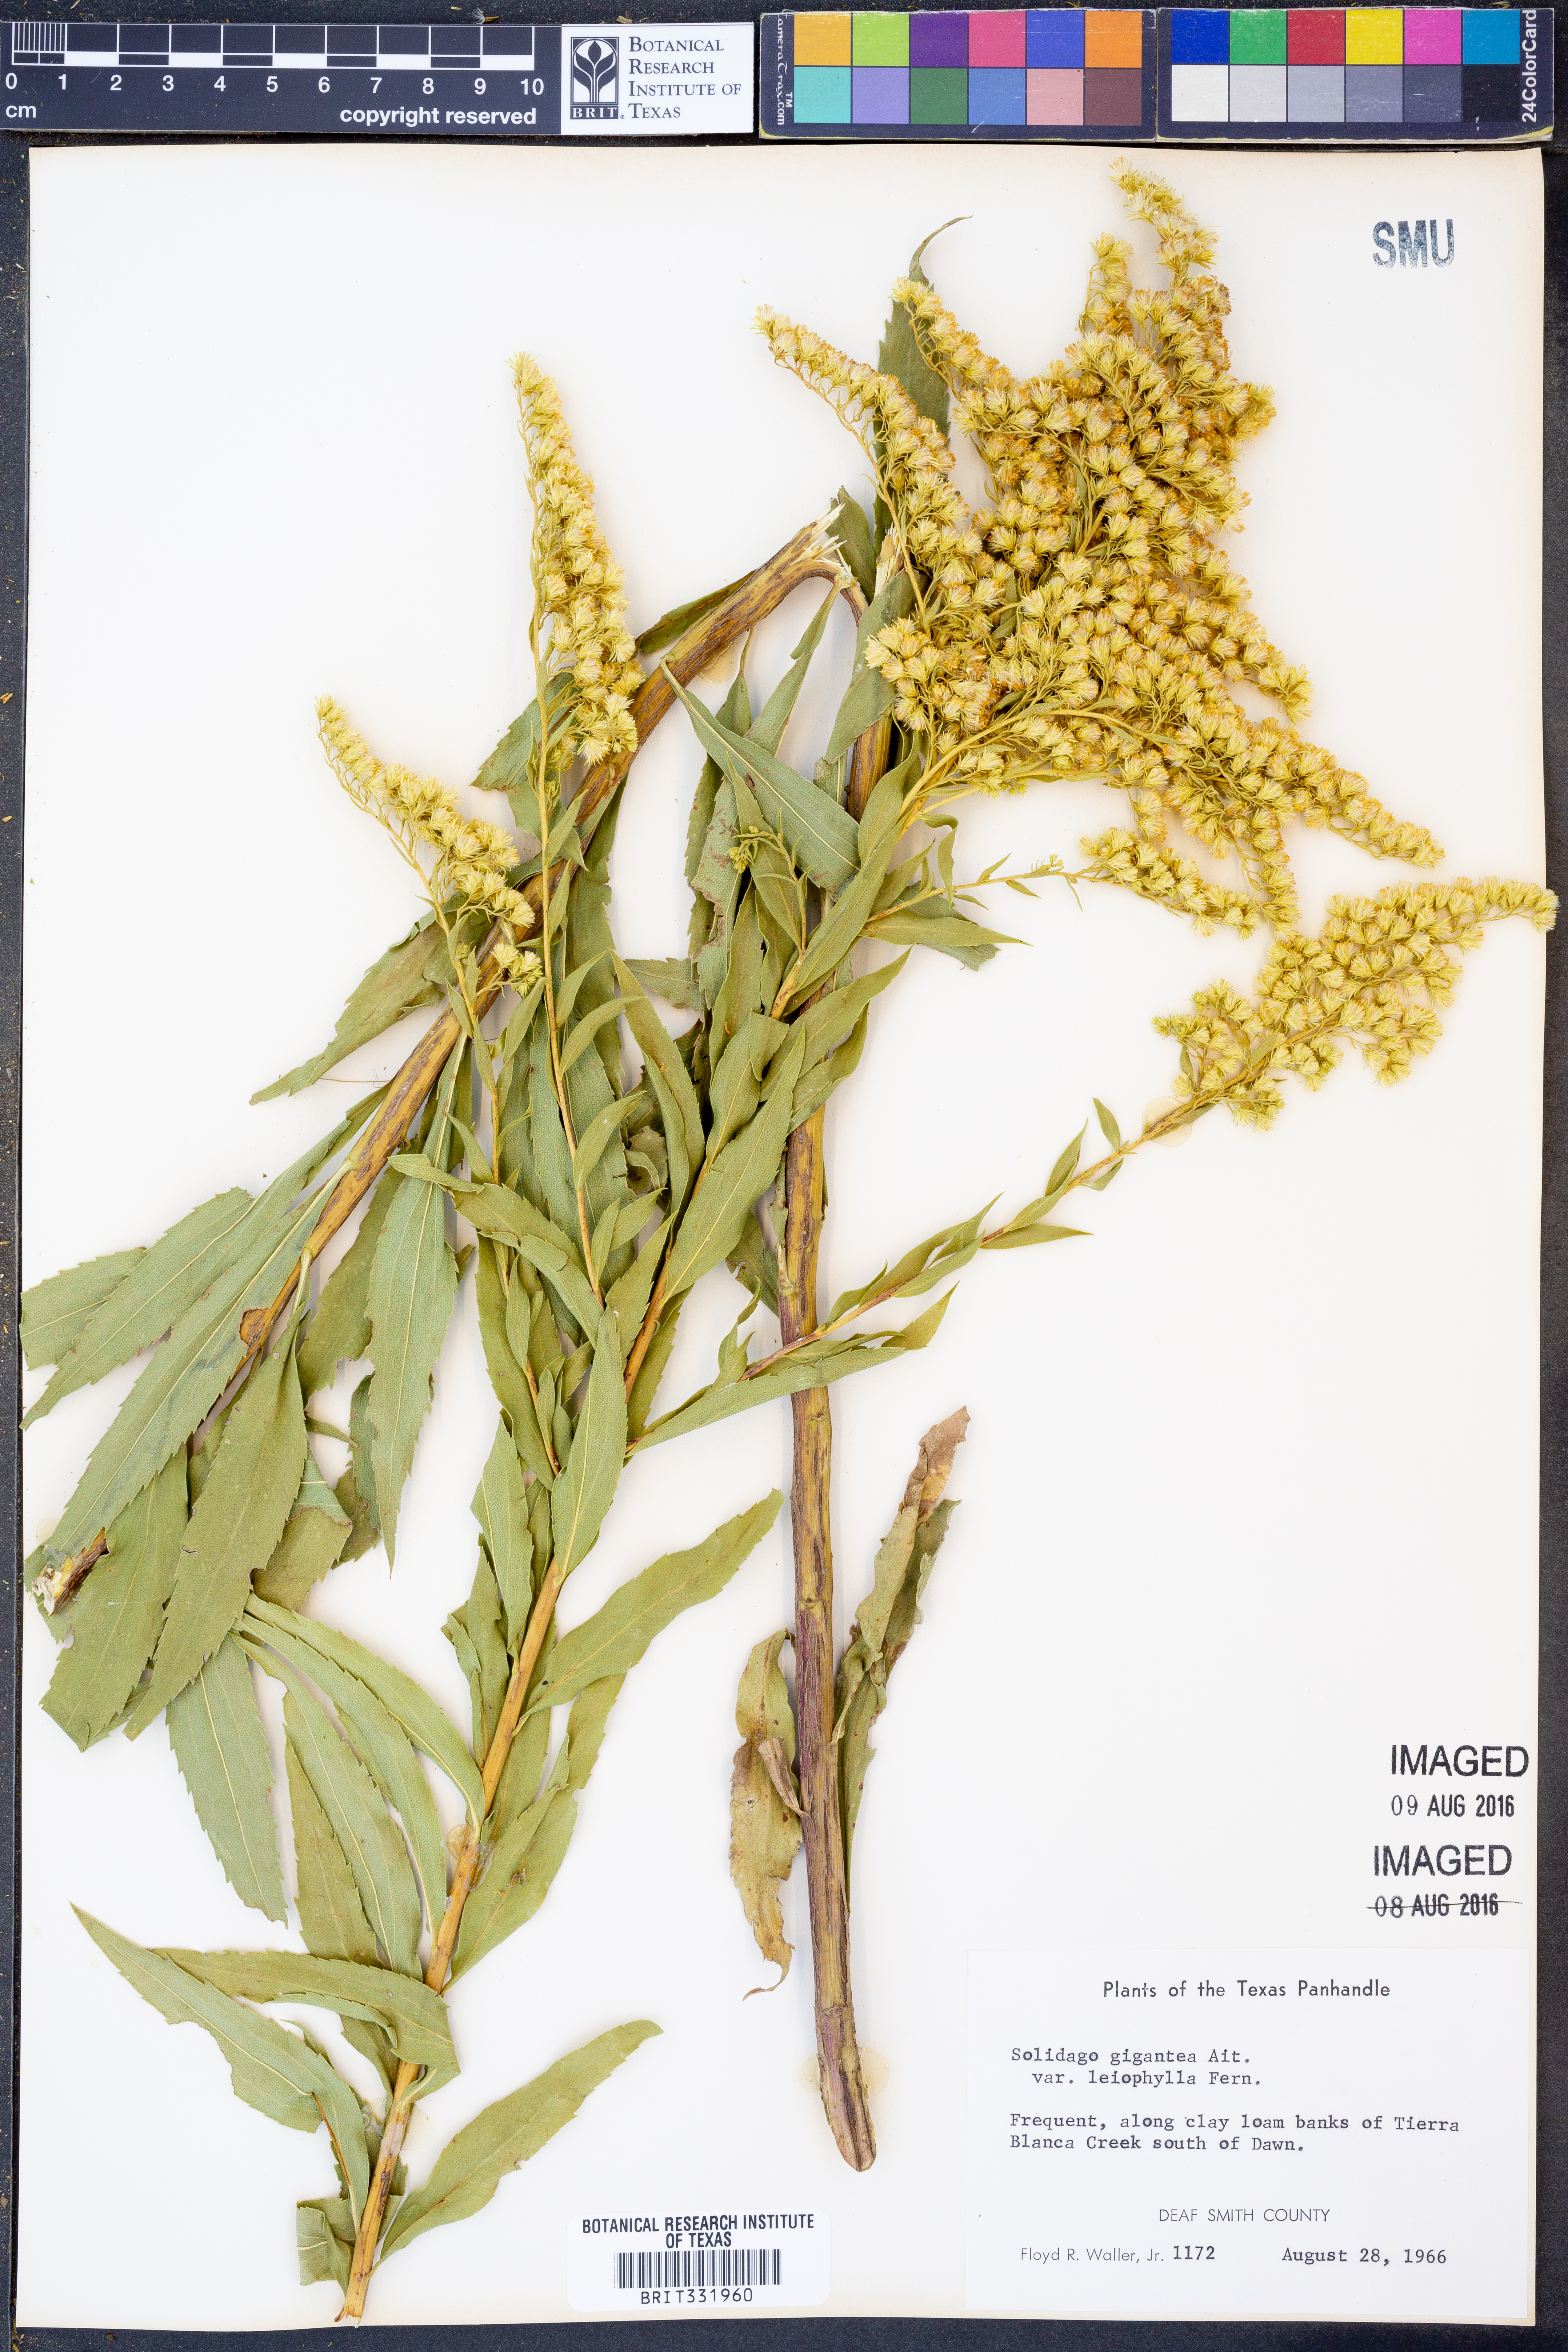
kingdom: Plantae
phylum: Tracheophyta
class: Magnoliopsida
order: Asterales
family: Asteraceae
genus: Solidago
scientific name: Solidago gigantea
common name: Giant goldenrod
